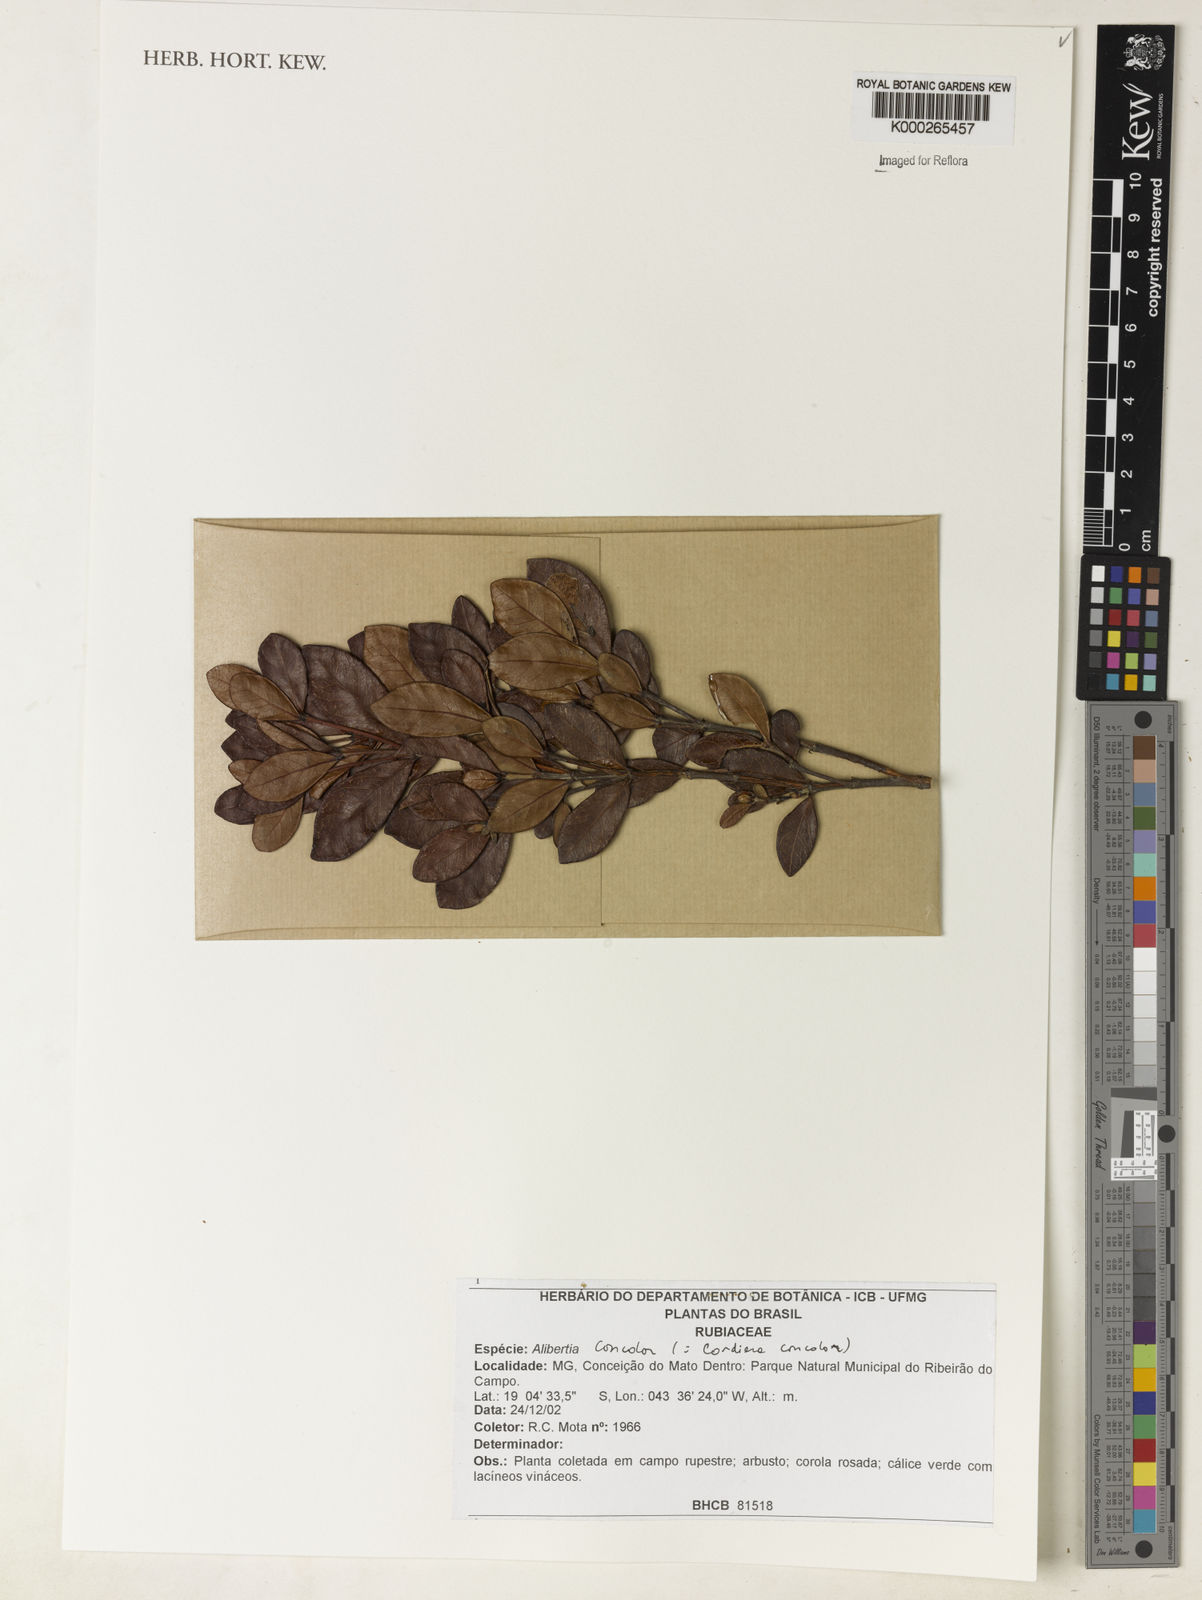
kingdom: Plantae
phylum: Tracheophyta
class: Magnoliopsida
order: Gentianales
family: Rubiaceae
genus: Cordiera
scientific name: Cordiera concolor
